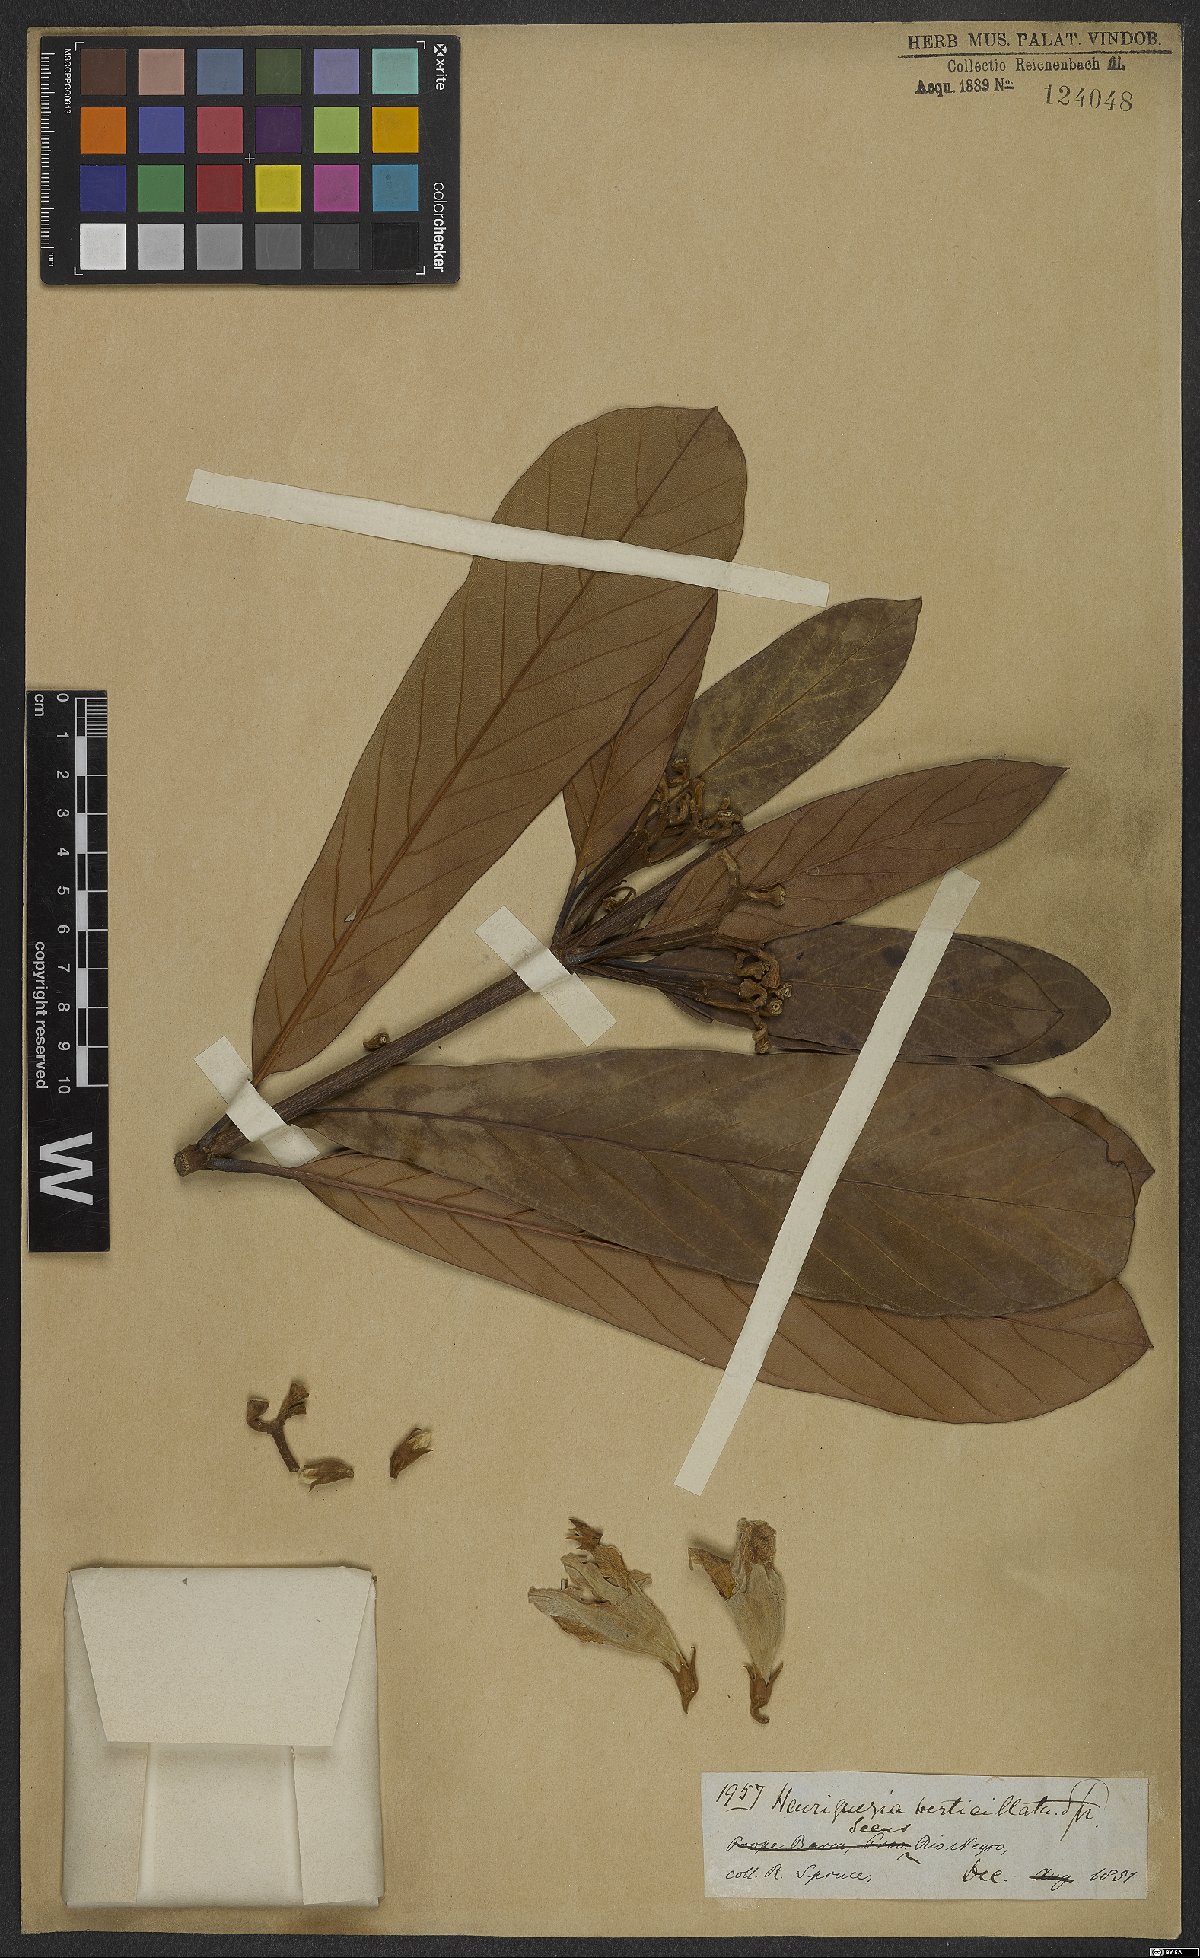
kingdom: Plantae
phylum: Tracheophyta
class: Magnoliopsida
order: Gentianales
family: Rubiaceae
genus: Henriquezia
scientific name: Henriquezia verticillata
